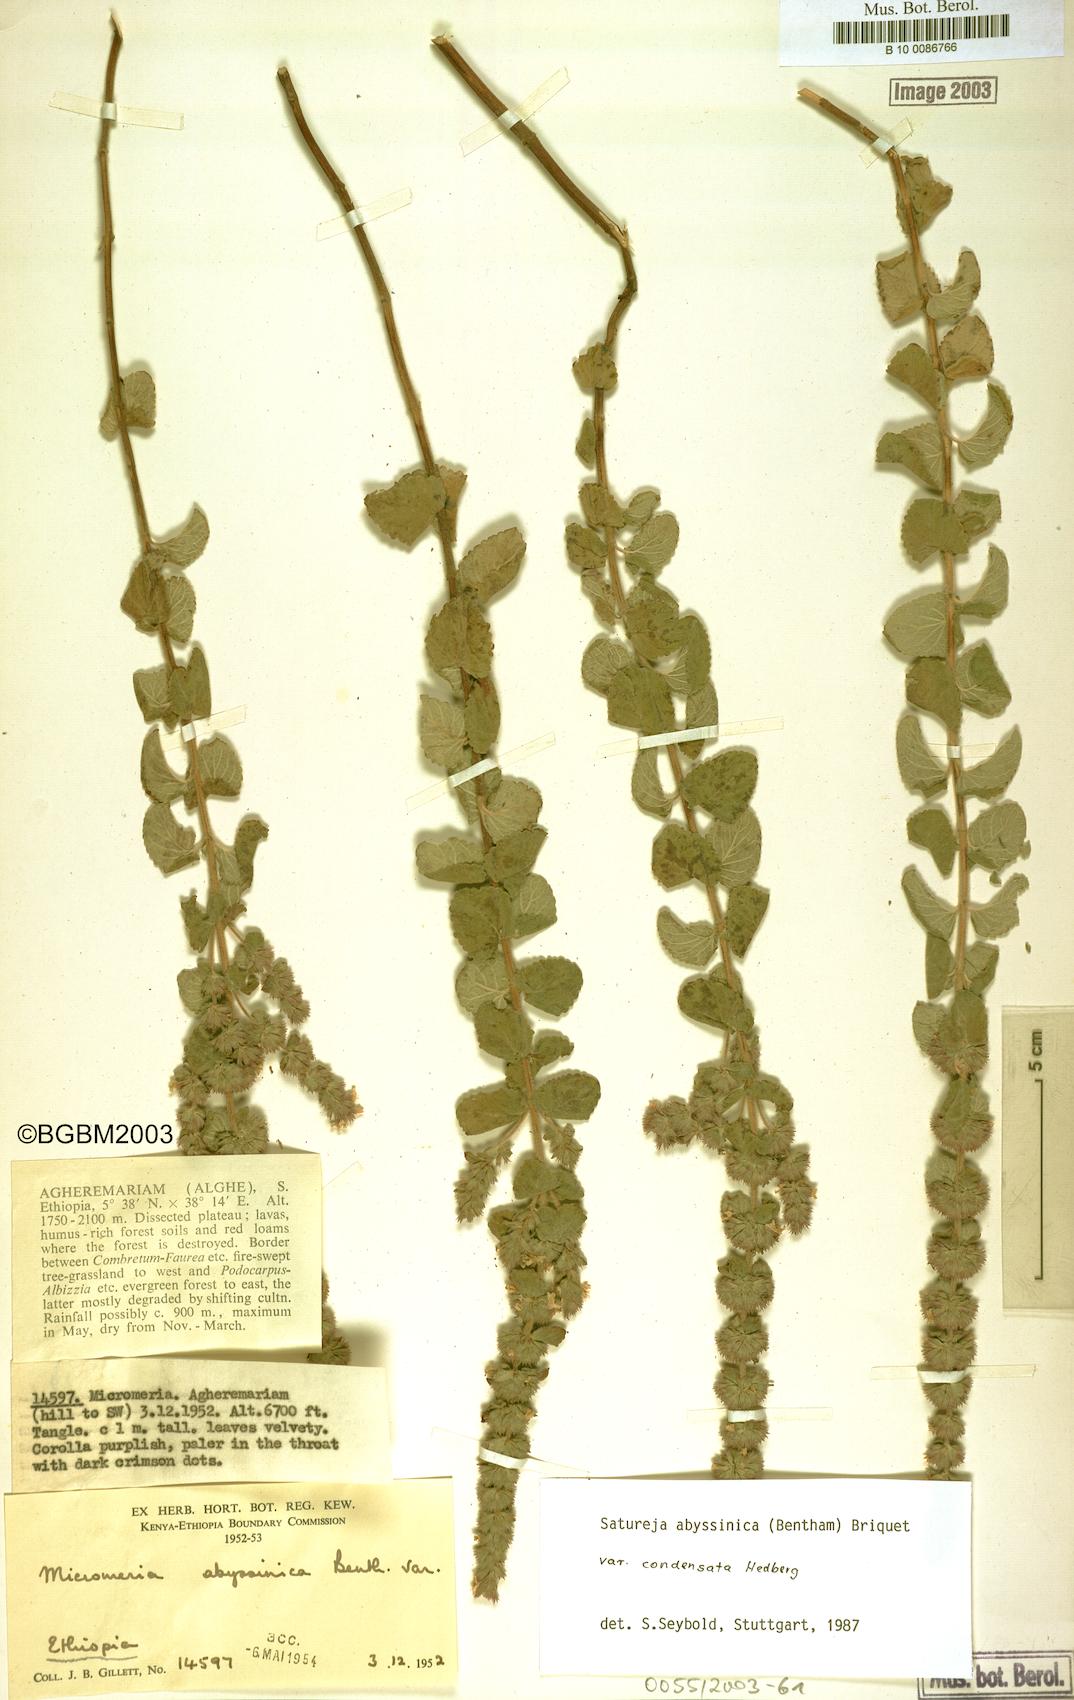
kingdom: Plantae
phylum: Tracheophyta
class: Magnoliopsida
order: Lamiales
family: Lamiaceae
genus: Clinopodium
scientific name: Clinopodium abyssinicum
